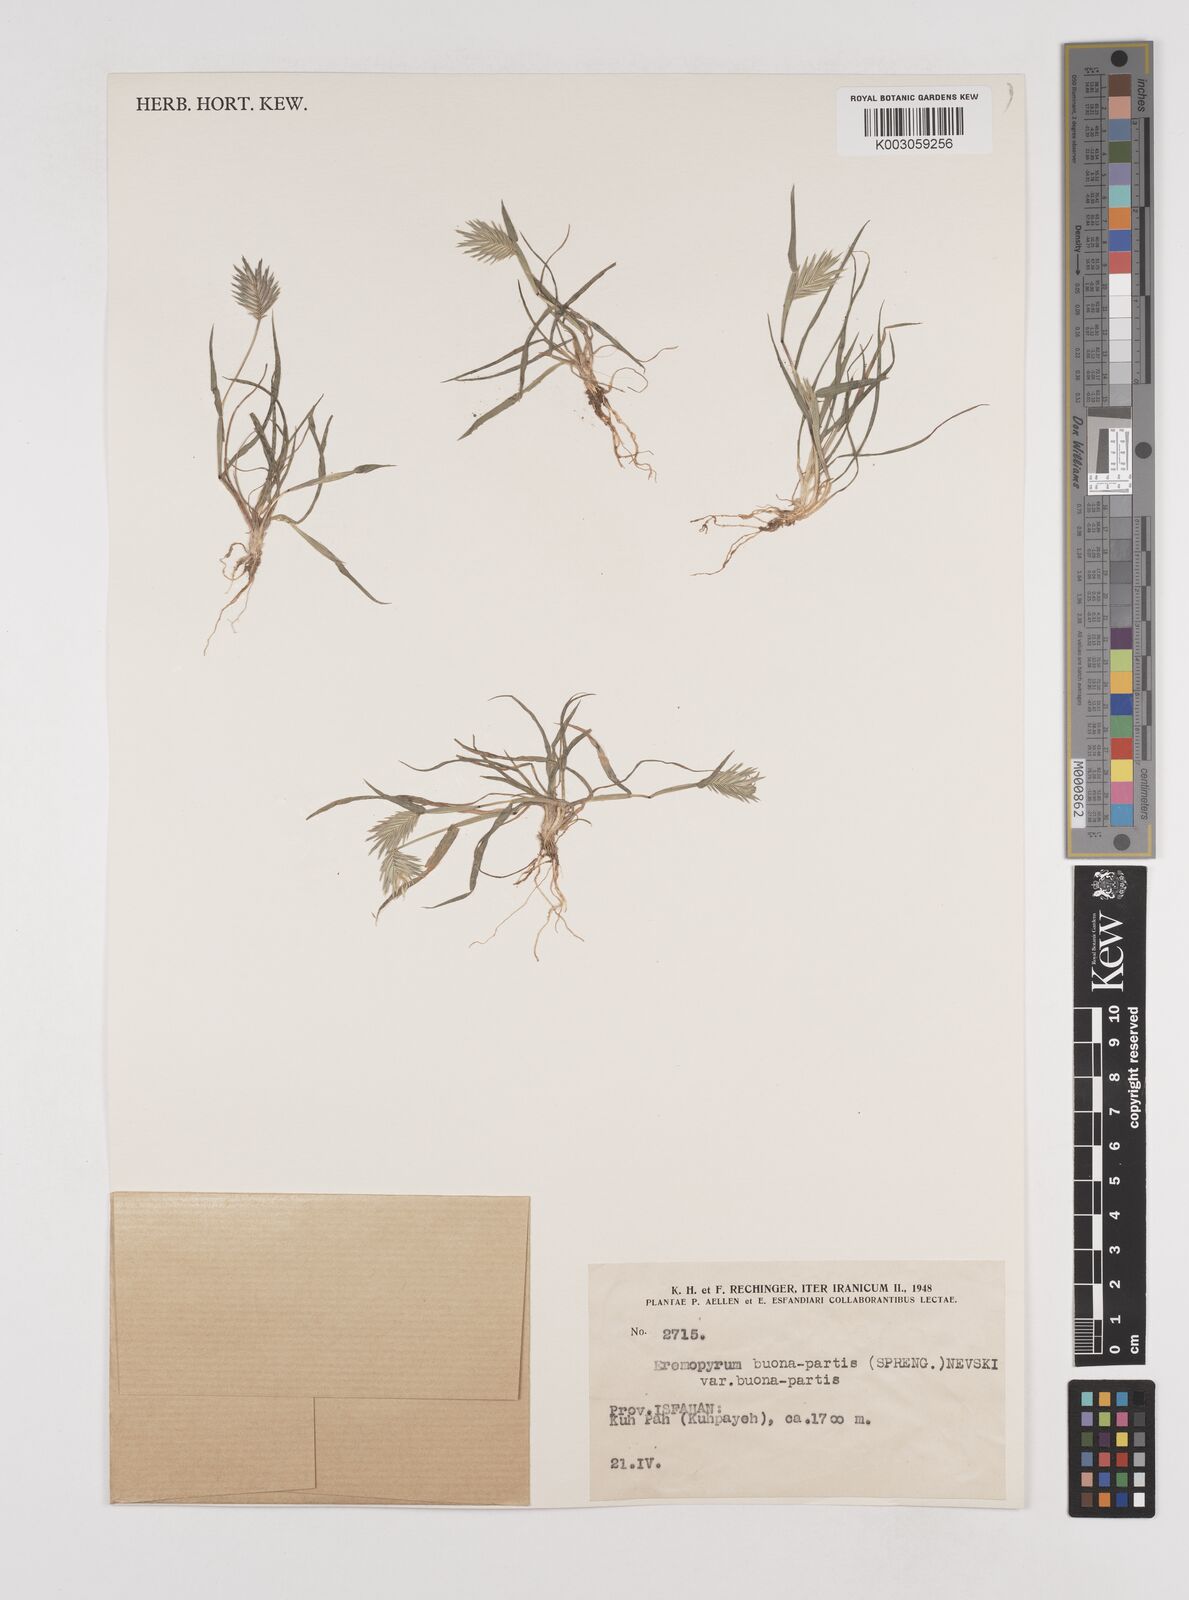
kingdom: Plantae
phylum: Tracheophyta
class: Liliopsida
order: Poales
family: Poaceae
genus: Eremopyrum
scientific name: Eremopyrum bonaepartis
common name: Tapertip false wheatgrass
